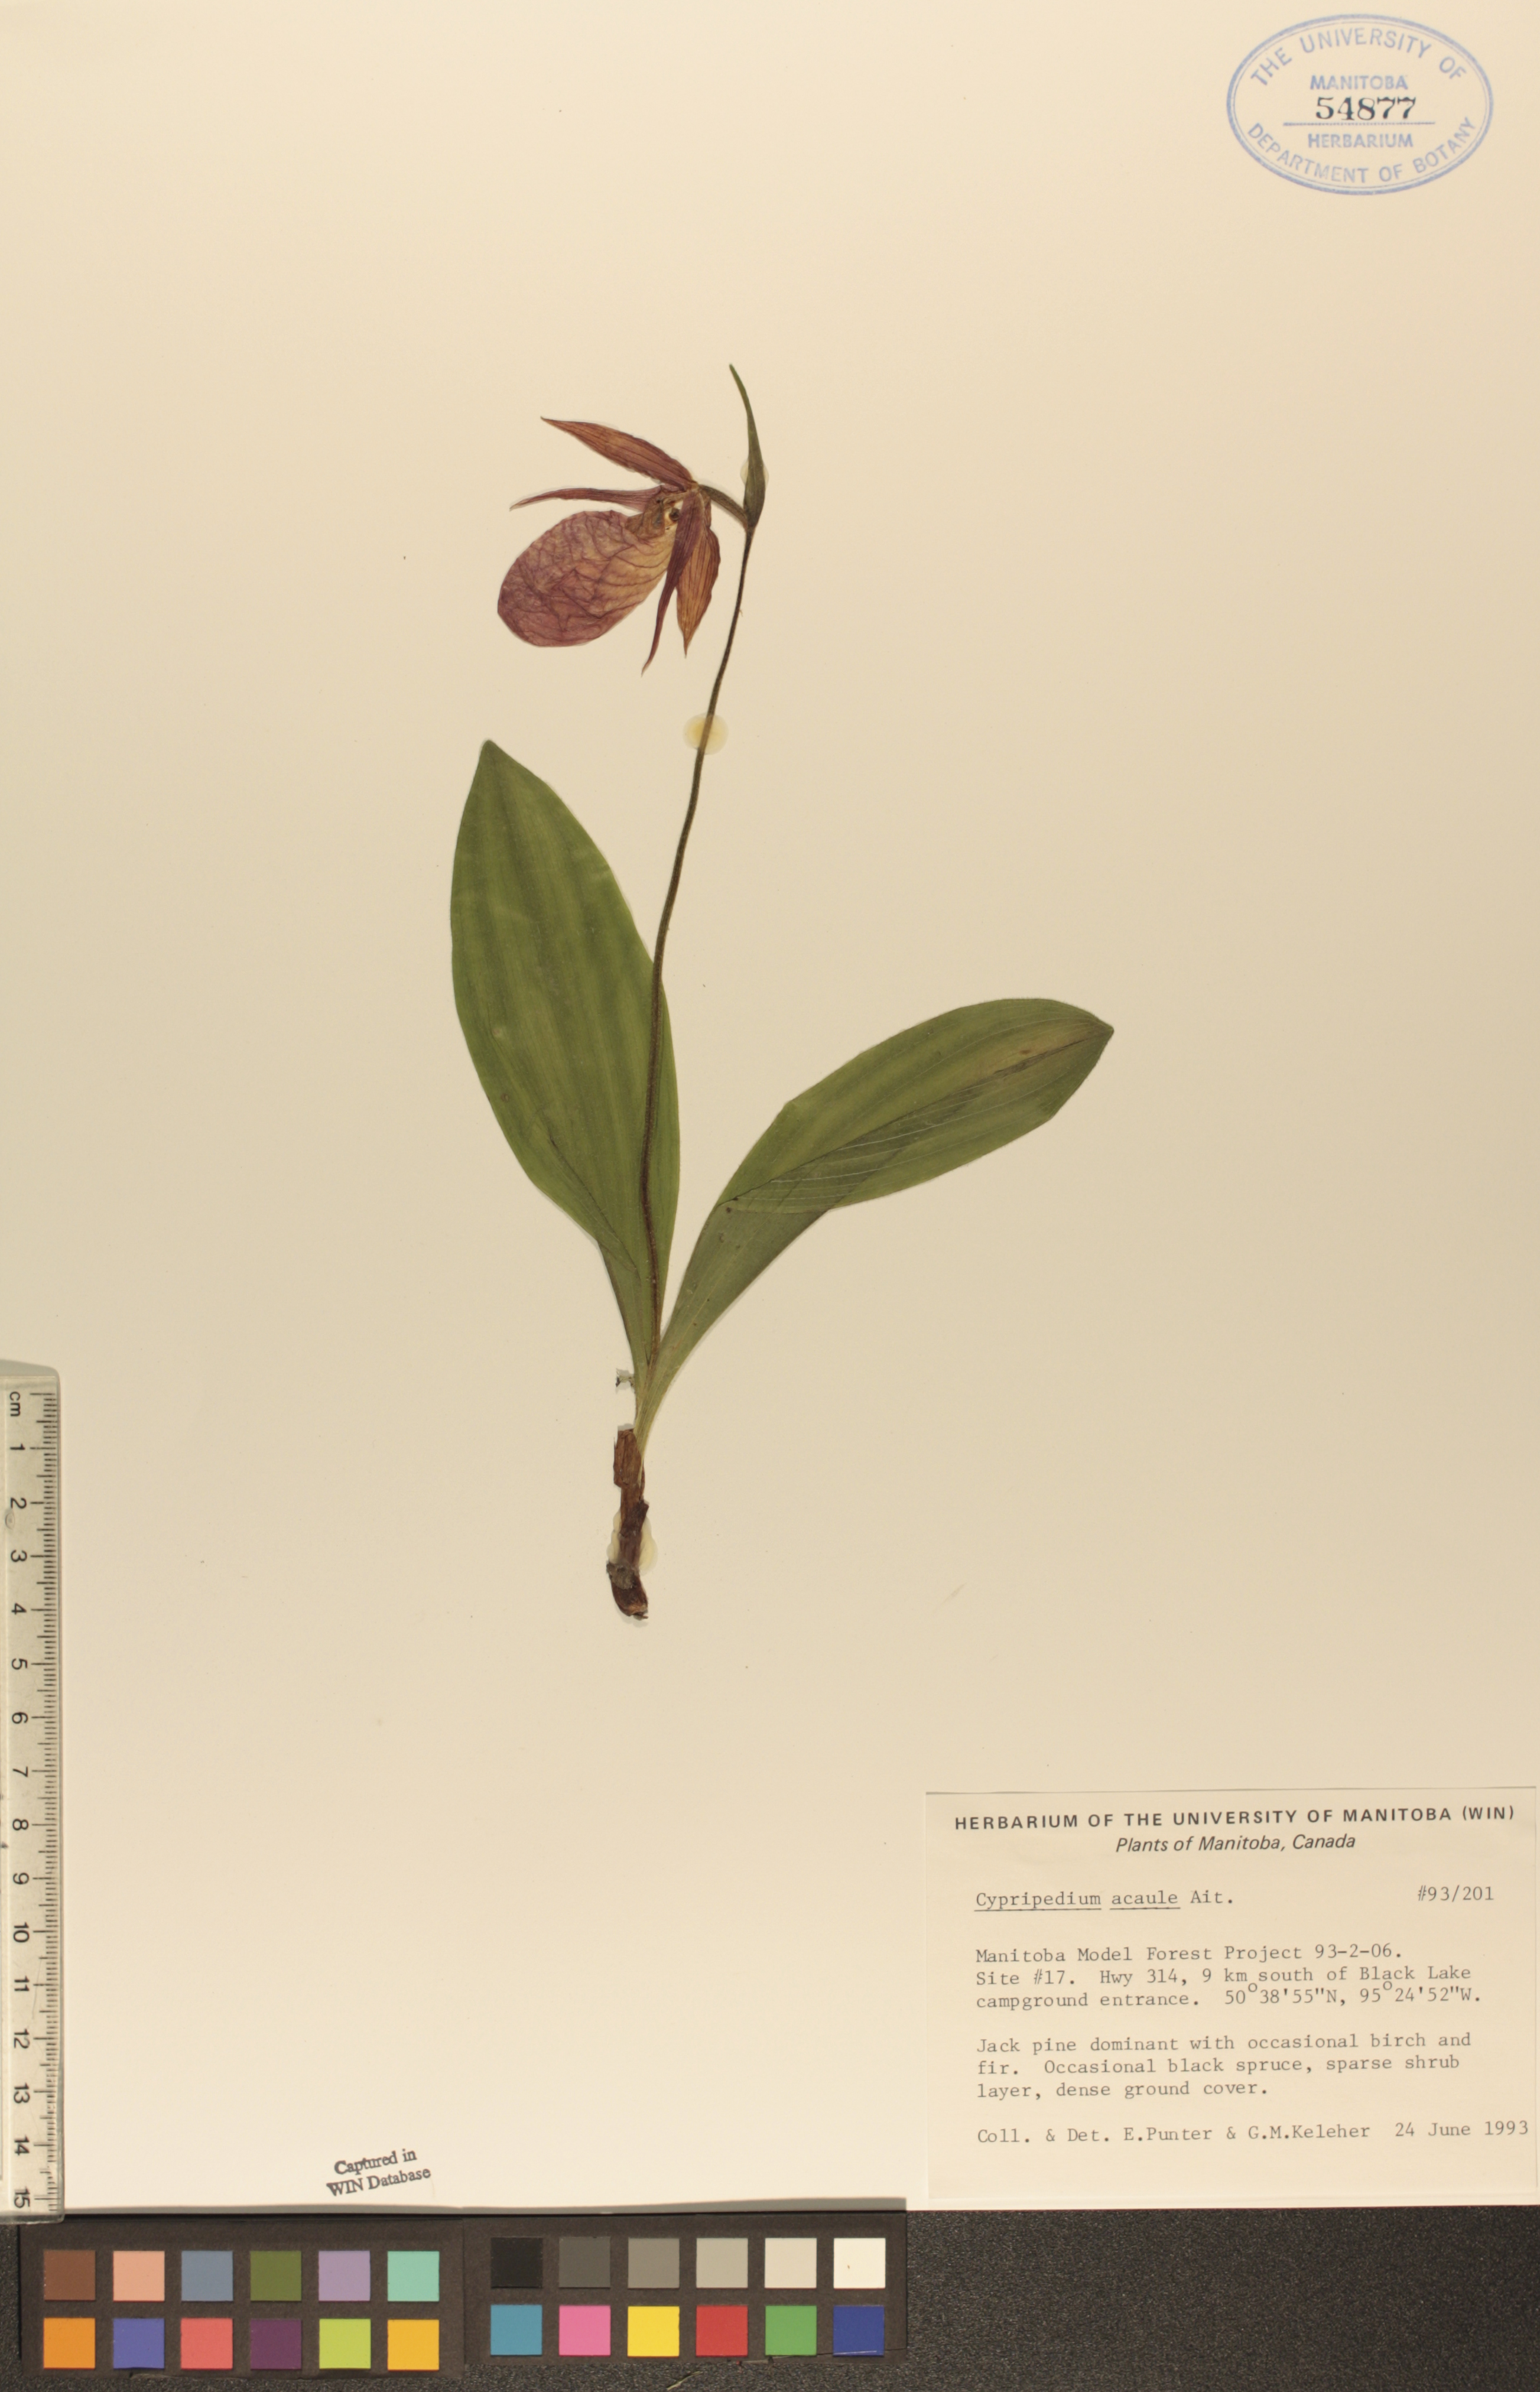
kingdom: Plantae
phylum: Tracheophyta
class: Liliopsida
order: Asparagales
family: Orchidaceae
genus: Cypripedium
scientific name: Cypripedium acaule
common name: Pink lady's-slipper
